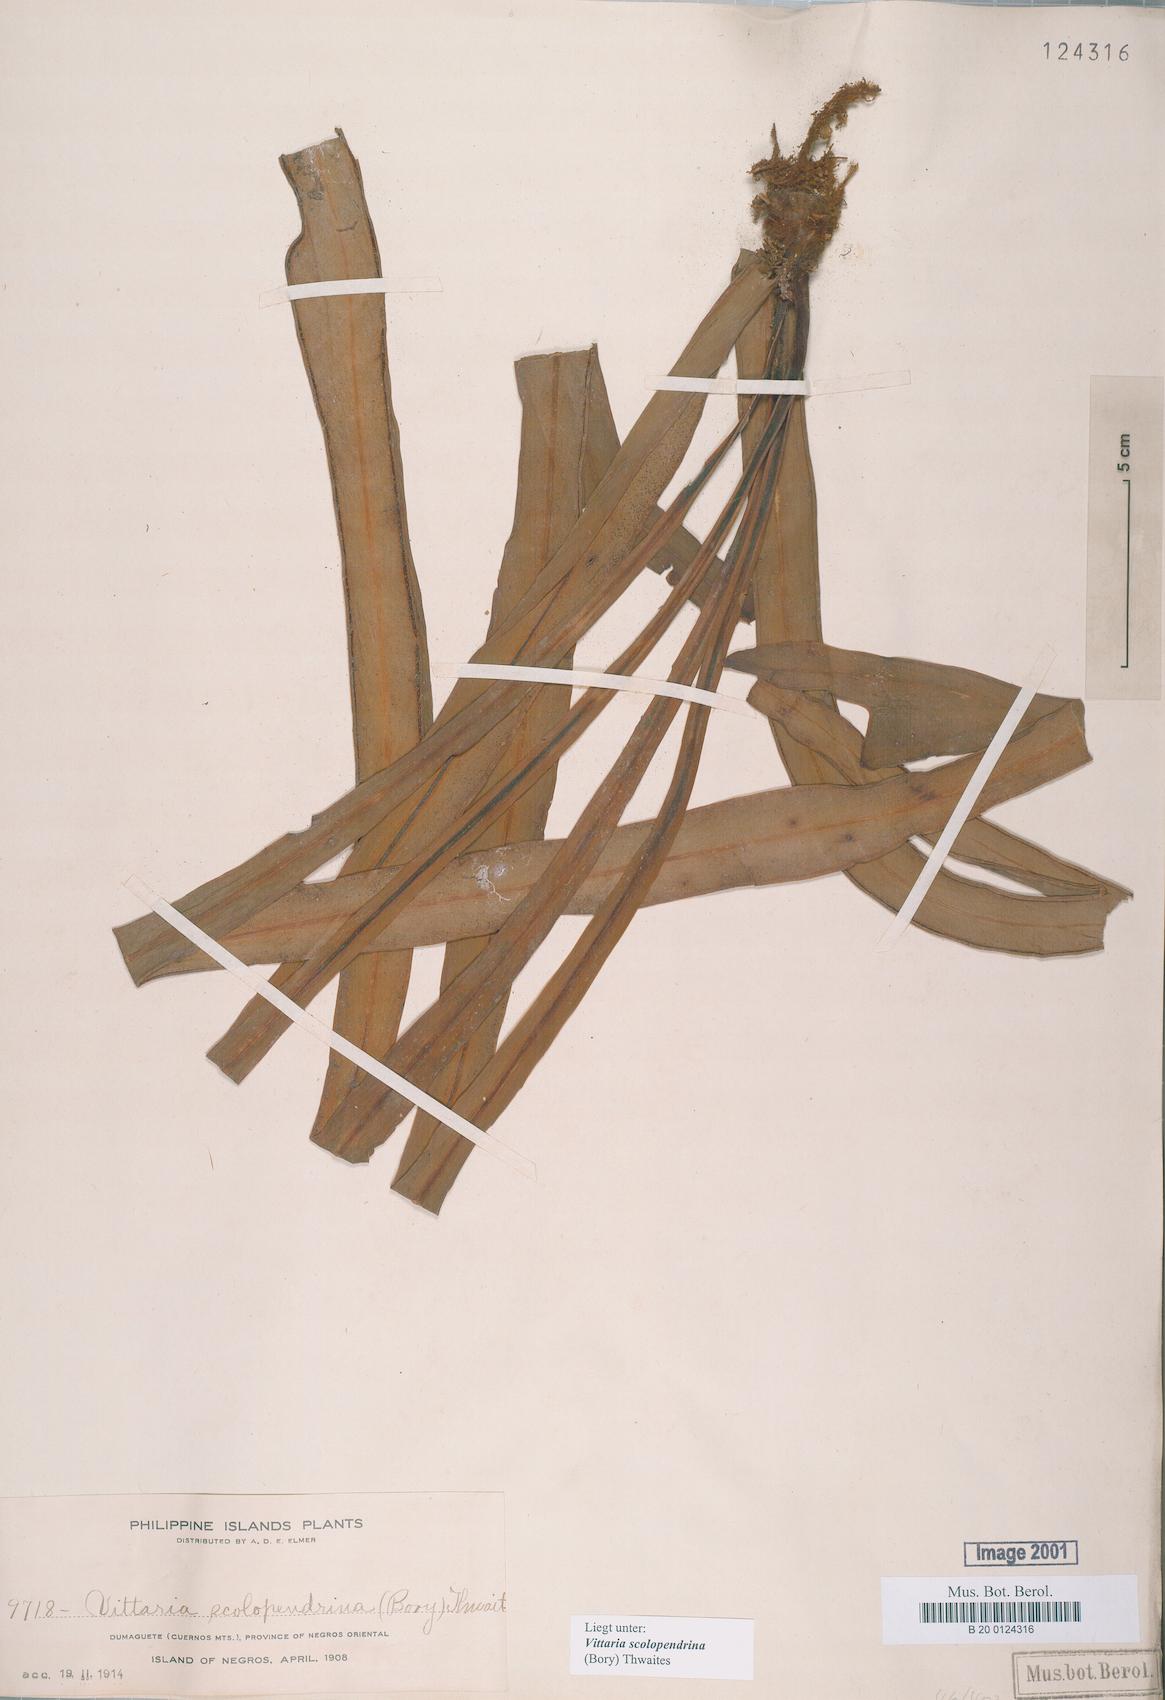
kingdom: Plantae
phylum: Tracheophyta
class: Polypodiopsida
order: Polypodiales
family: Pteridaceae
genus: Haplopteris
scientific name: Haplopteris scolopendrina
